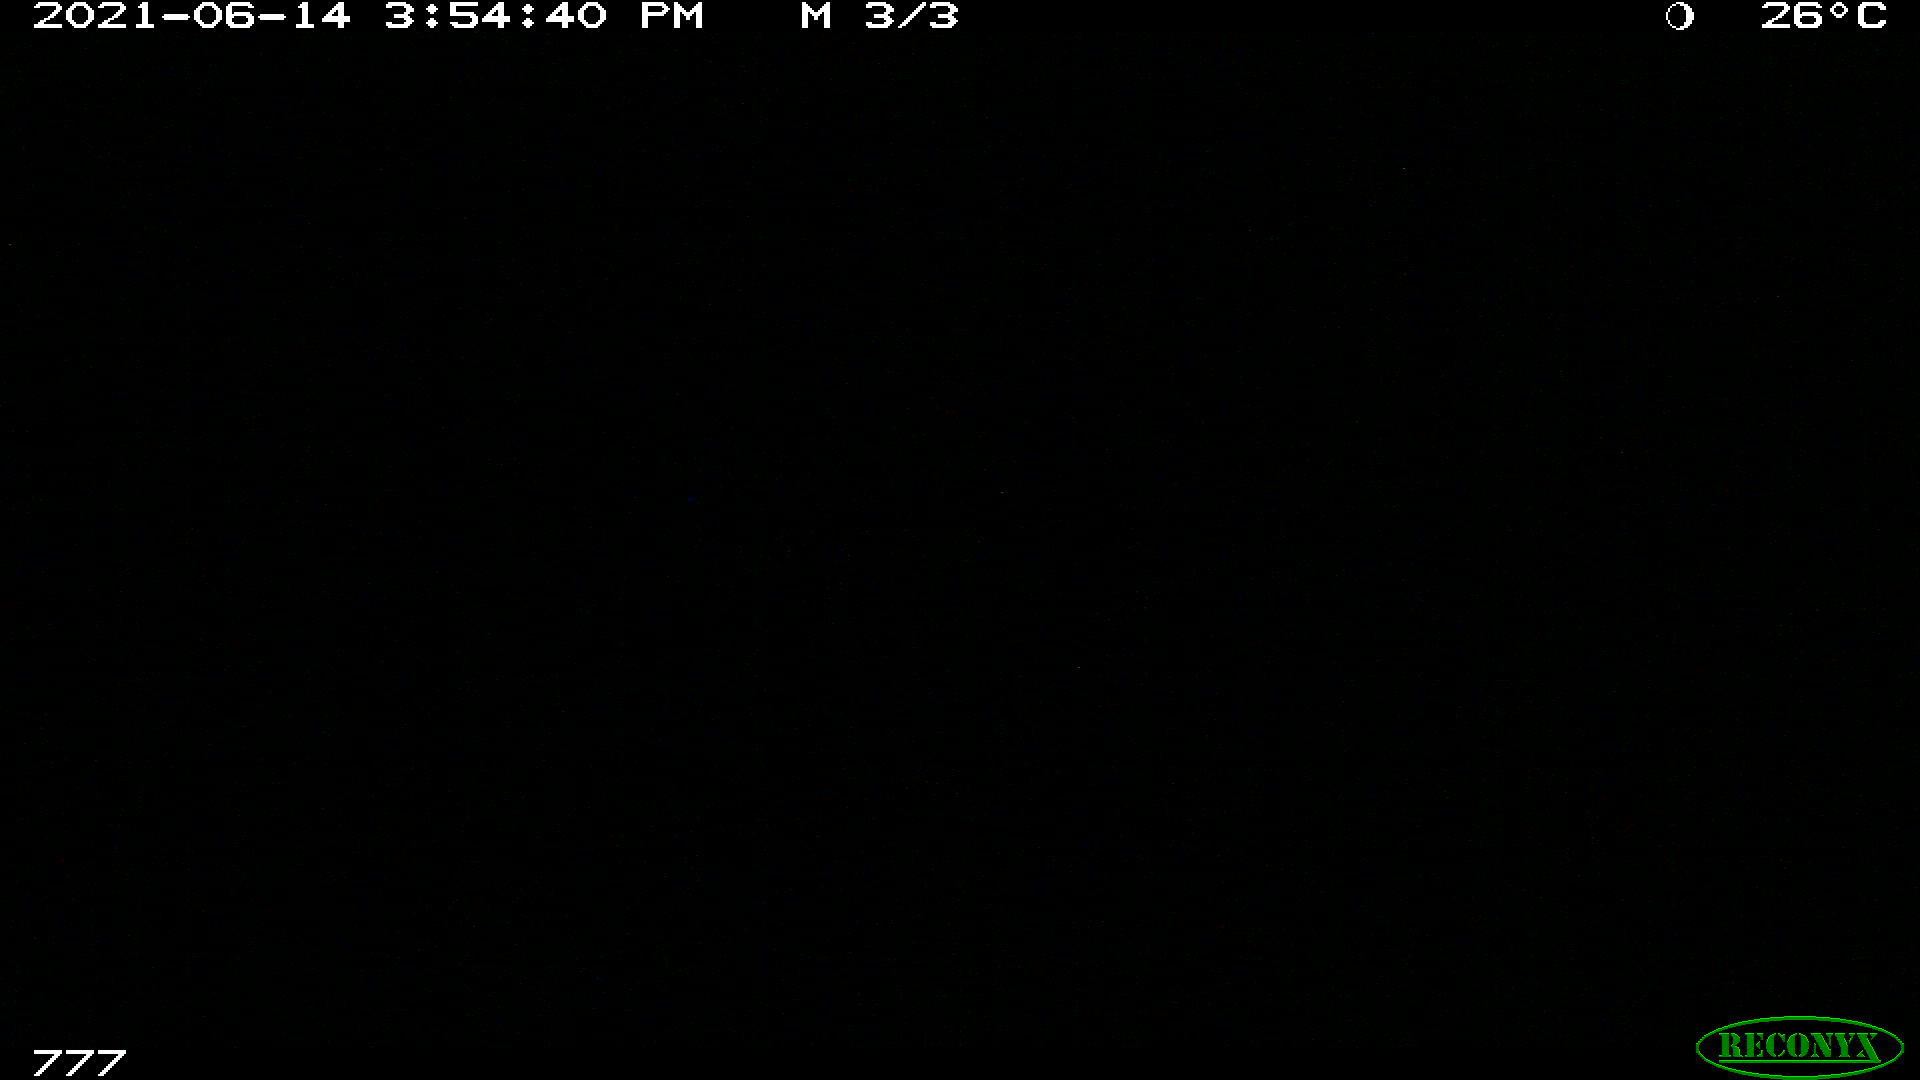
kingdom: Animalia
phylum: Chordata
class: Mammalia
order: Artiodactyla
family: Bovidae
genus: Bos
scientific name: Bos taurus
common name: Domesticated cattle
